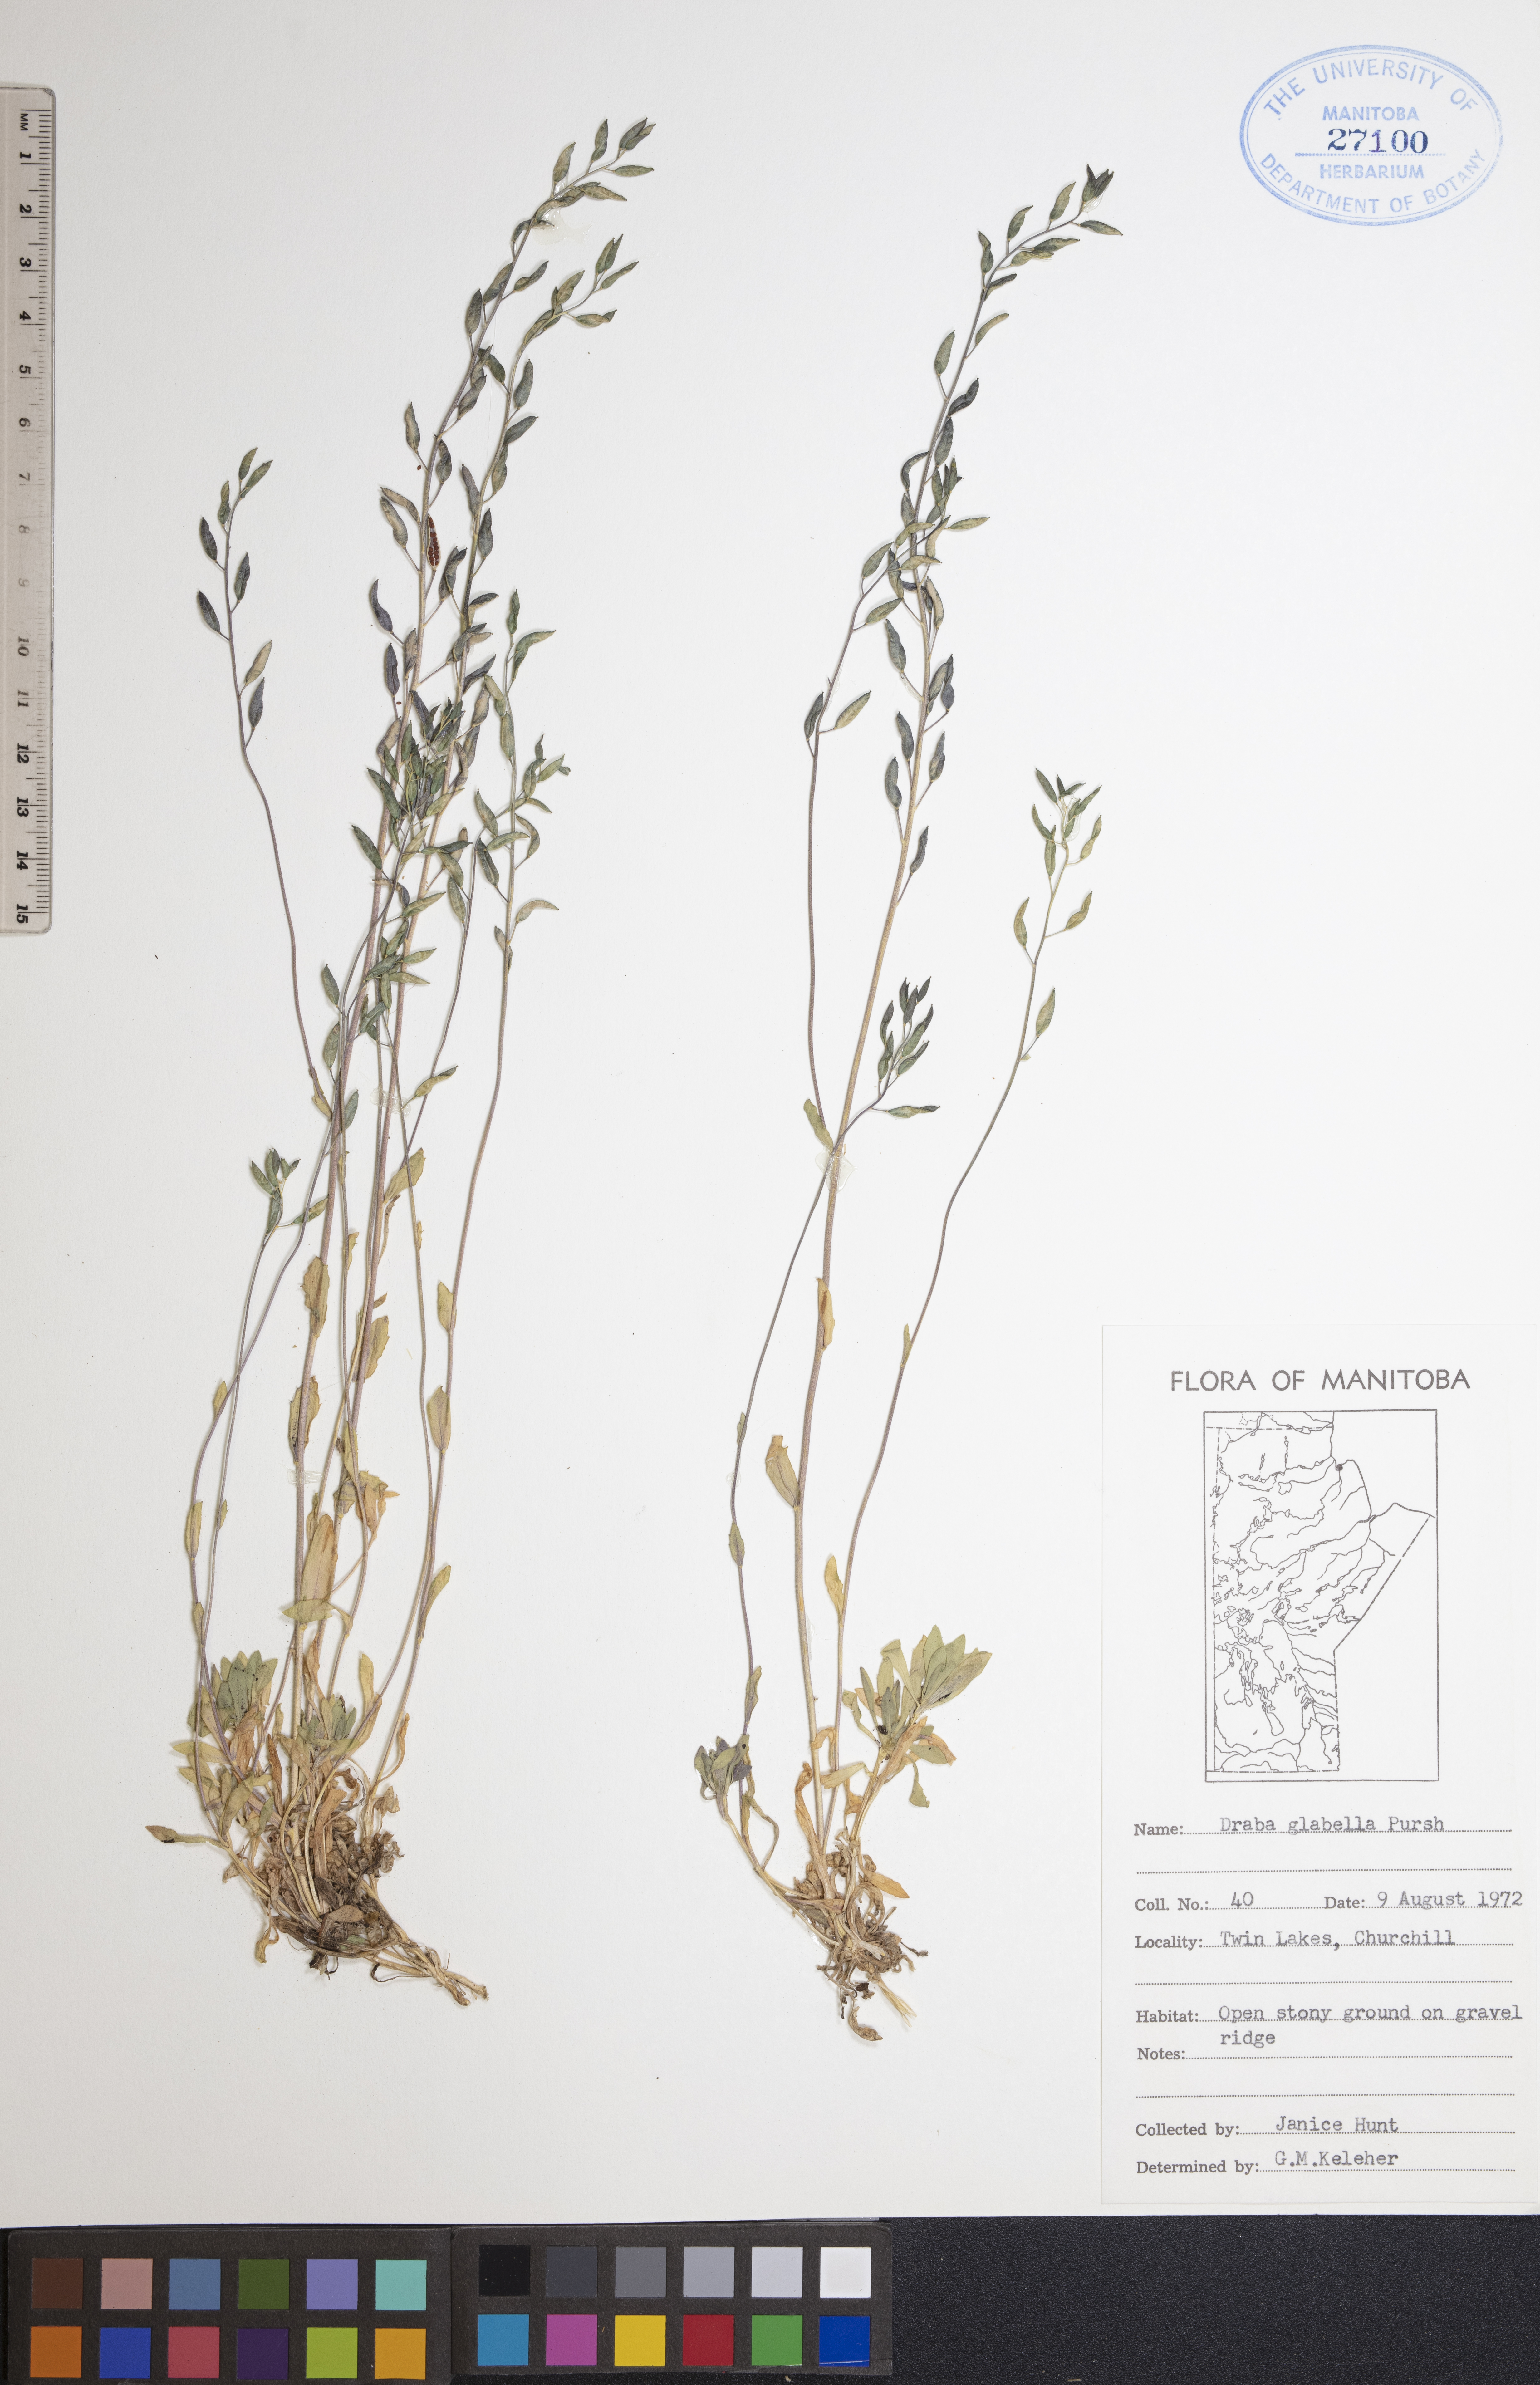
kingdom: Plantae
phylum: Tracheophyta
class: Magnoliopsida
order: Brassicales
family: Brassicaceae
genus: Draba
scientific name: Draba glabella
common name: Glaucous draba
